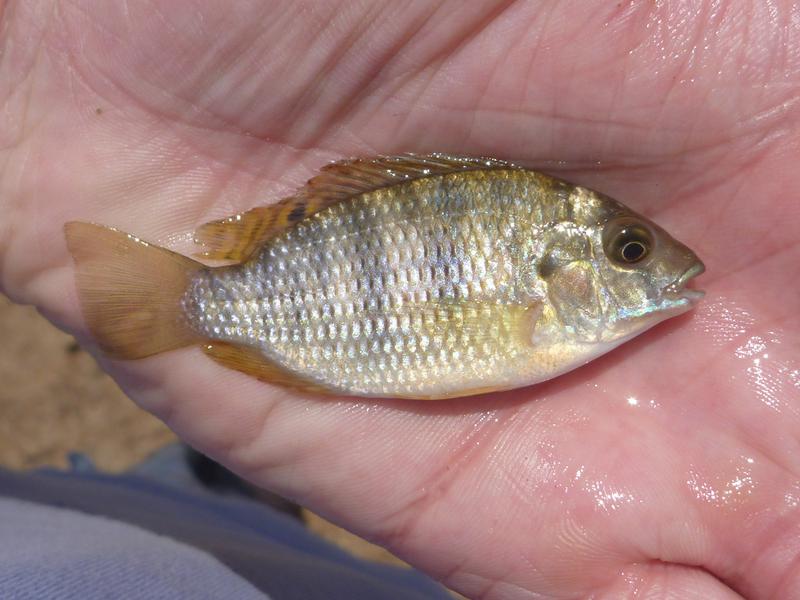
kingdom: Animalia
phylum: Chordata
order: Perciformes
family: Cichlidae
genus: Coptodon
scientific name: Coptodon rendalli
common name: Redbreast tilapia
